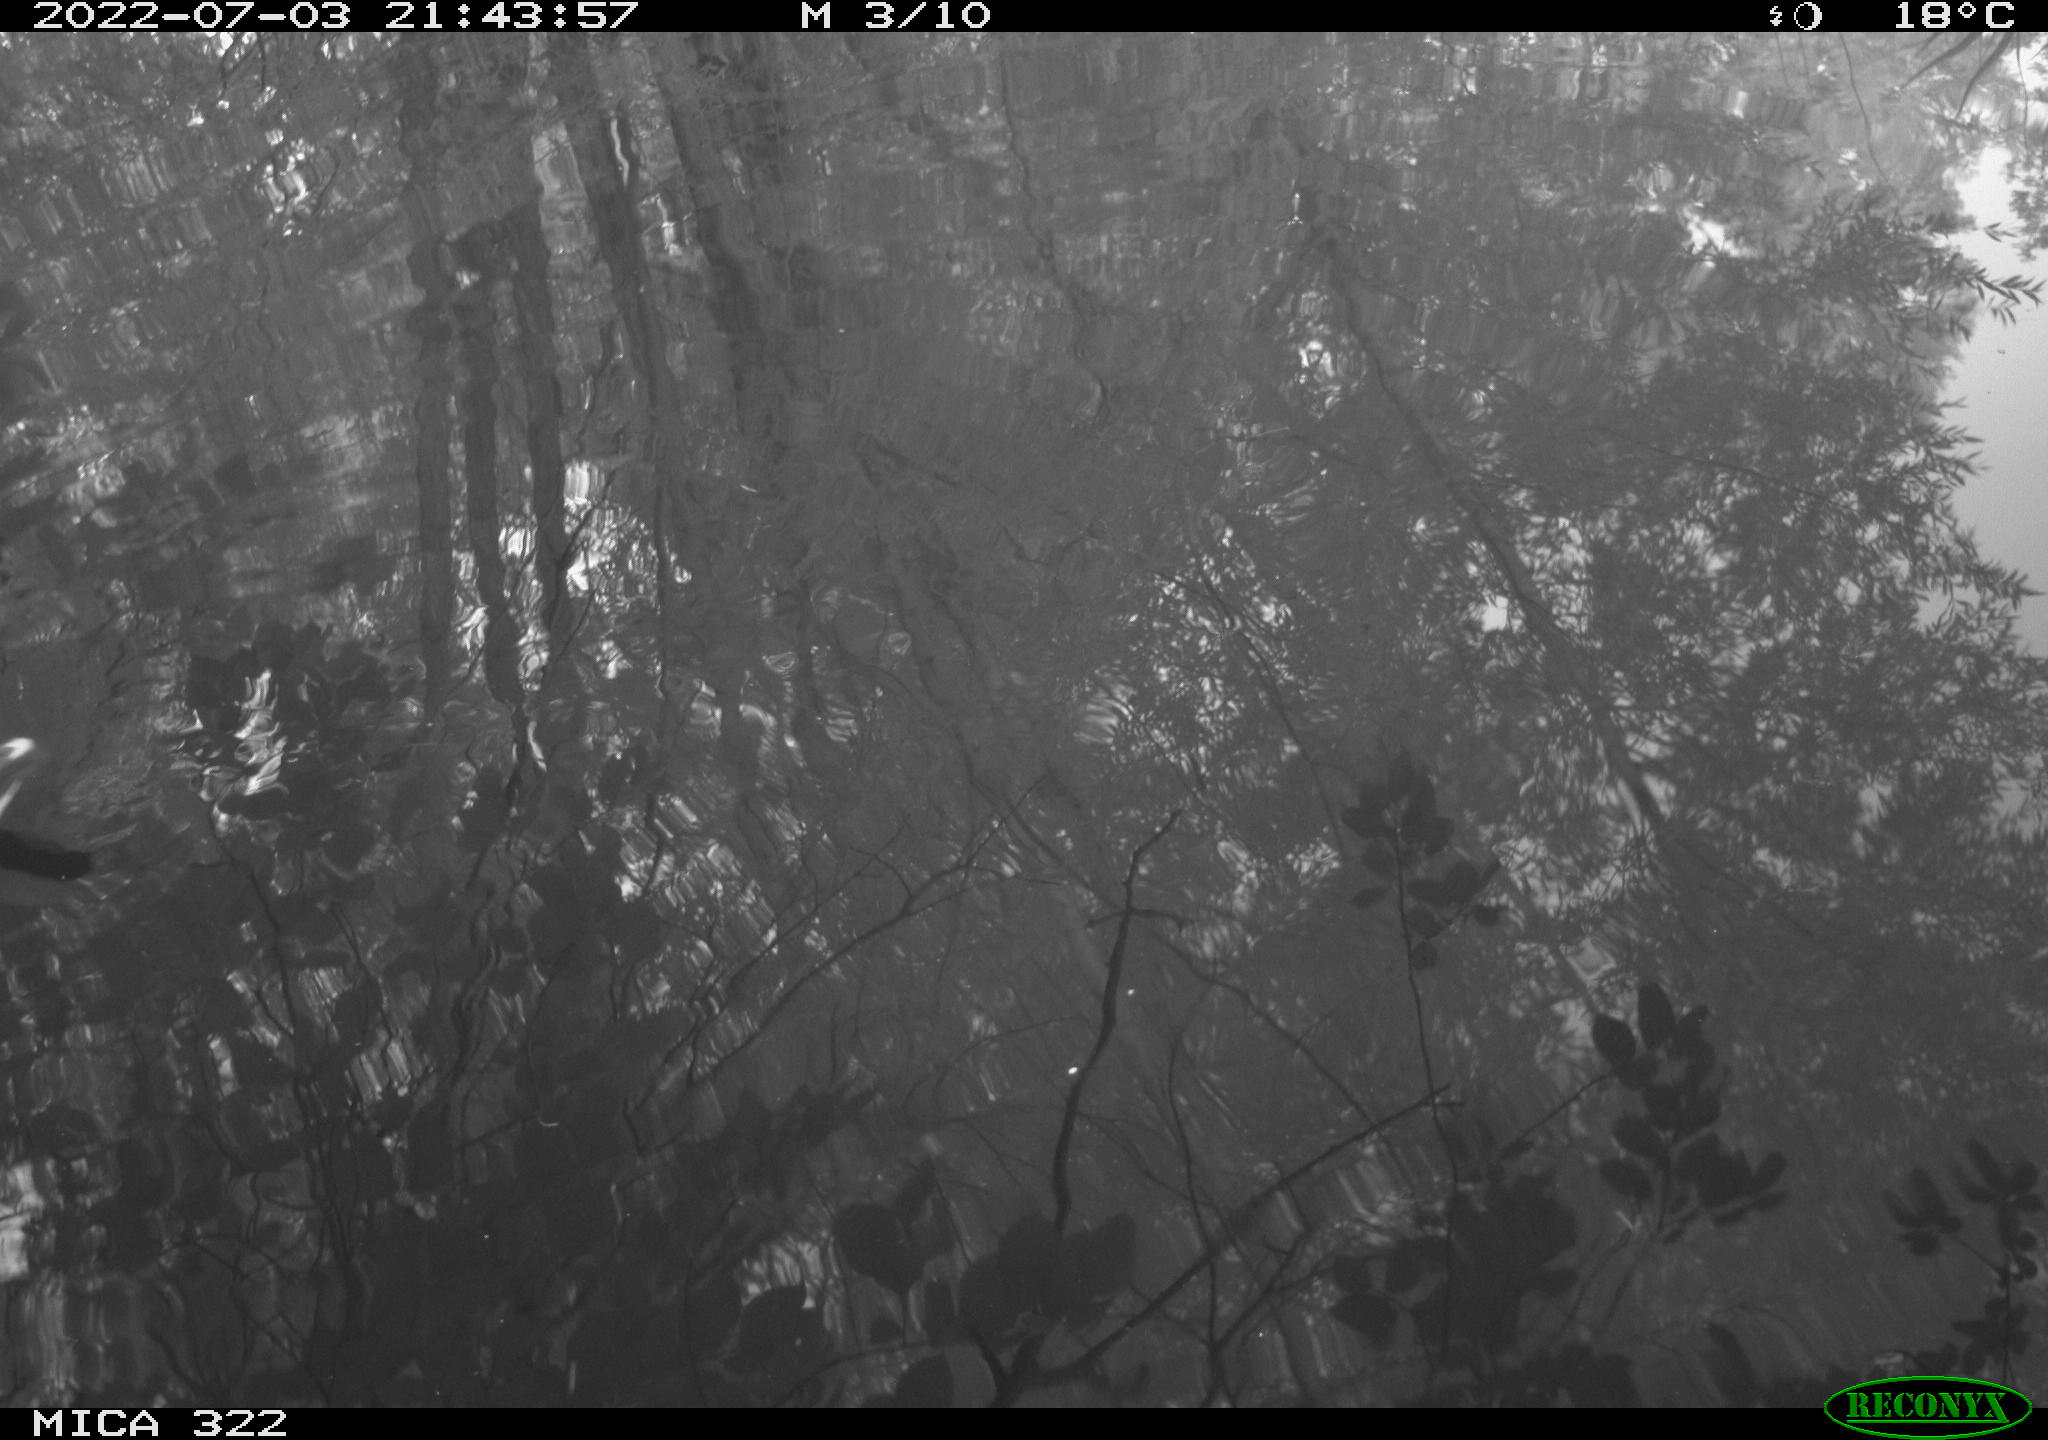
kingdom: Animalia
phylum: Chordata
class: Aves
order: Gruiformes
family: Rallidae
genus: Gallinula
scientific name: Gallinula chloropus
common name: Common moorhen
